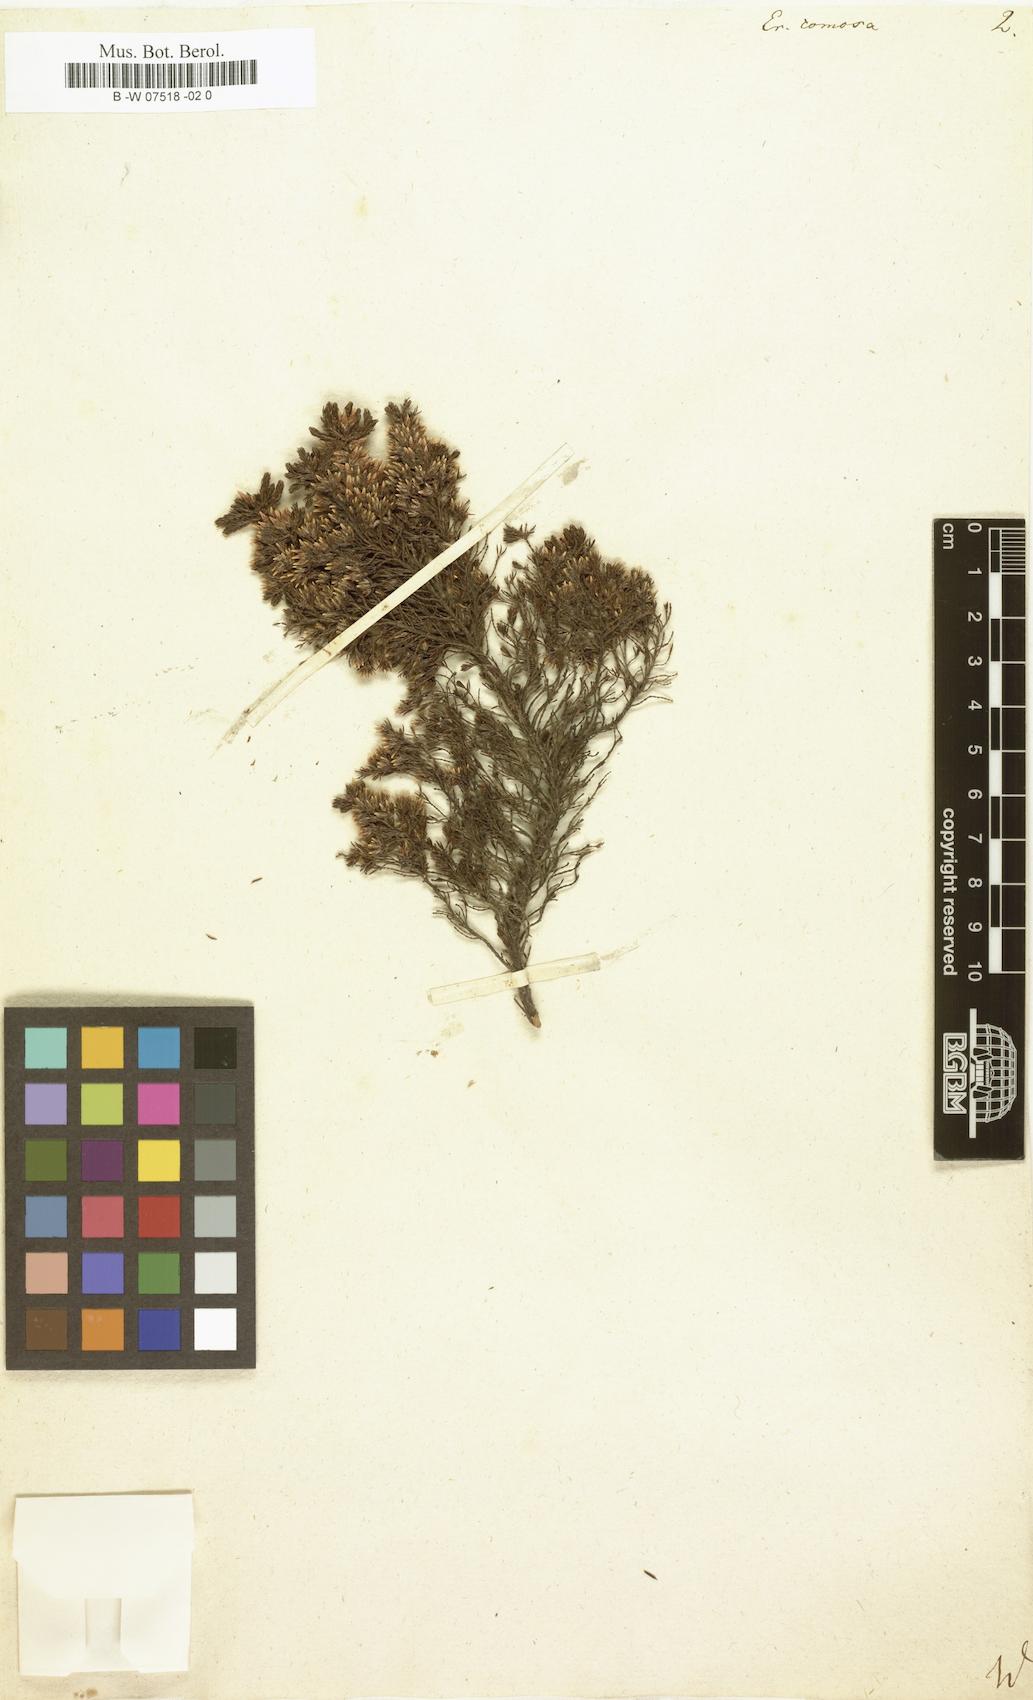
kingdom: Plantae
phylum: Tracheophyta
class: Magnoliopsida
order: Ericales
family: Ericaceae
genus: Erica
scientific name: Erica diaphana
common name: Heath
